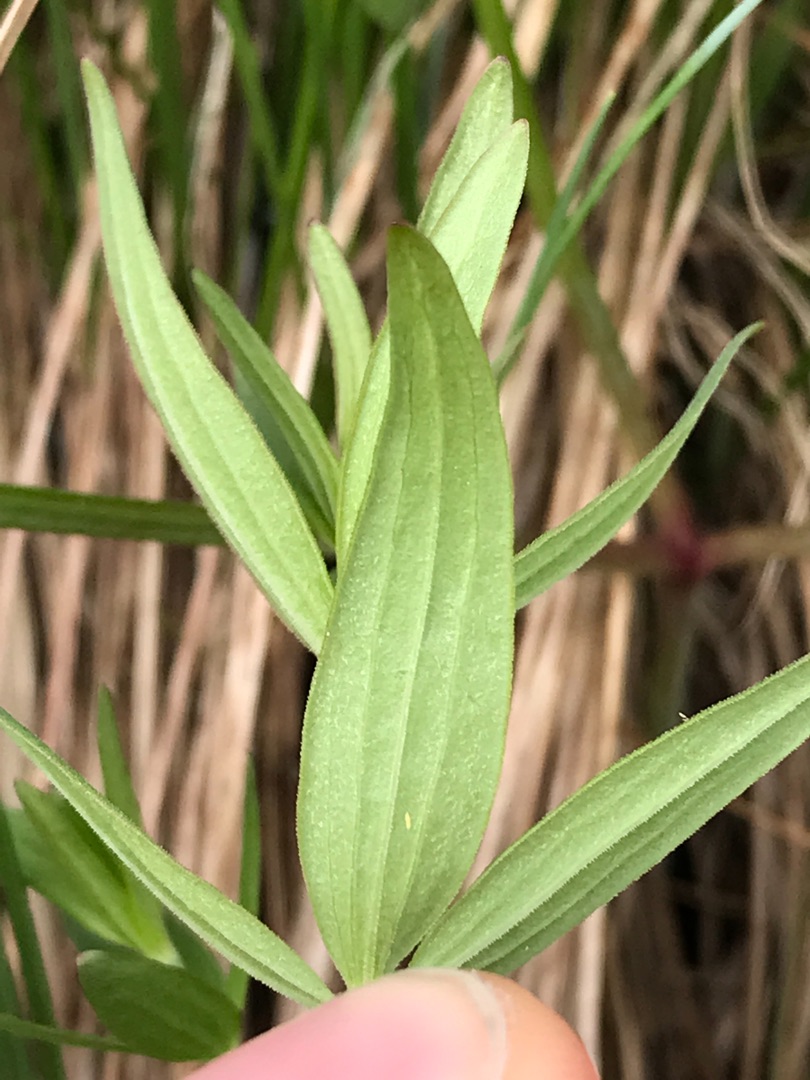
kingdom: Plantae
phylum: Tracheophyta
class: Magnoliopsida
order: Gentianales
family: Rubiaceae
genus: Galium
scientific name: Galium boreale
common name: Trenervet snerre
